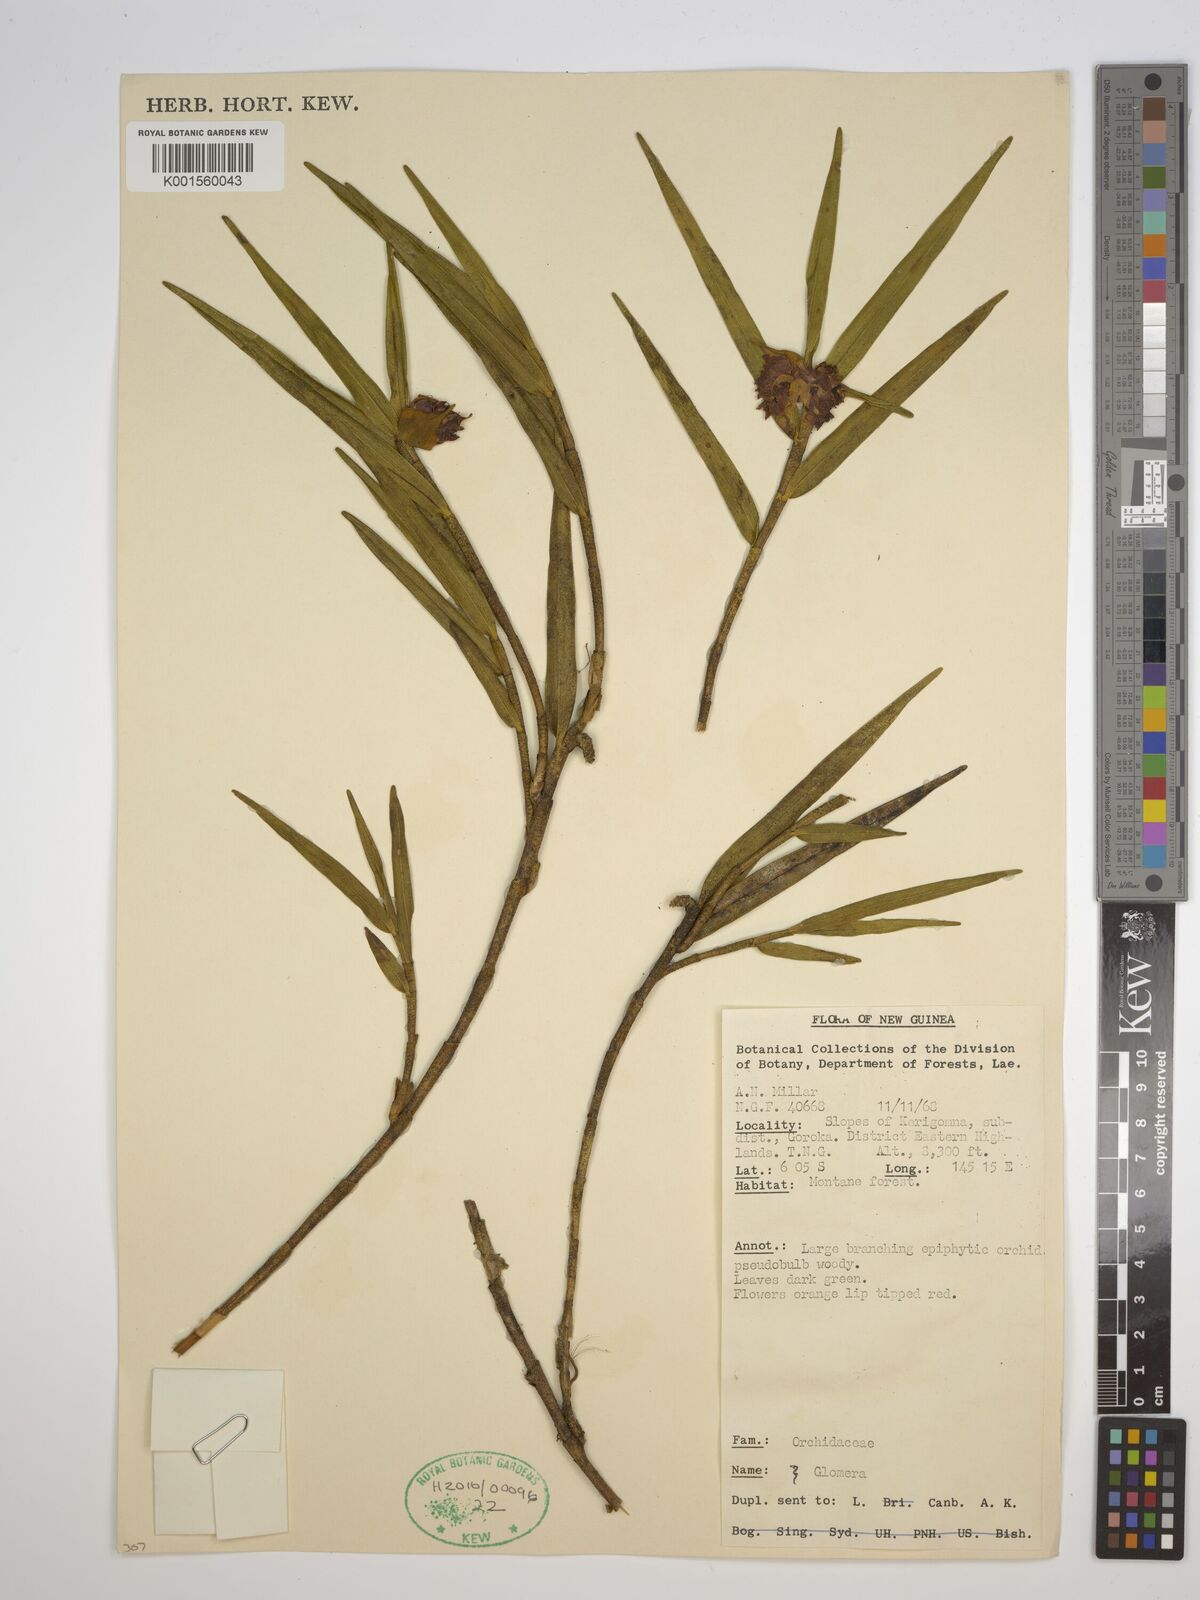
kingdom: Plantae
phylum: Tracheophyta
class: Liliopsida
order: Asparagales
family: Orchidaceae
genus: Glomera
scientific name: Glomera
